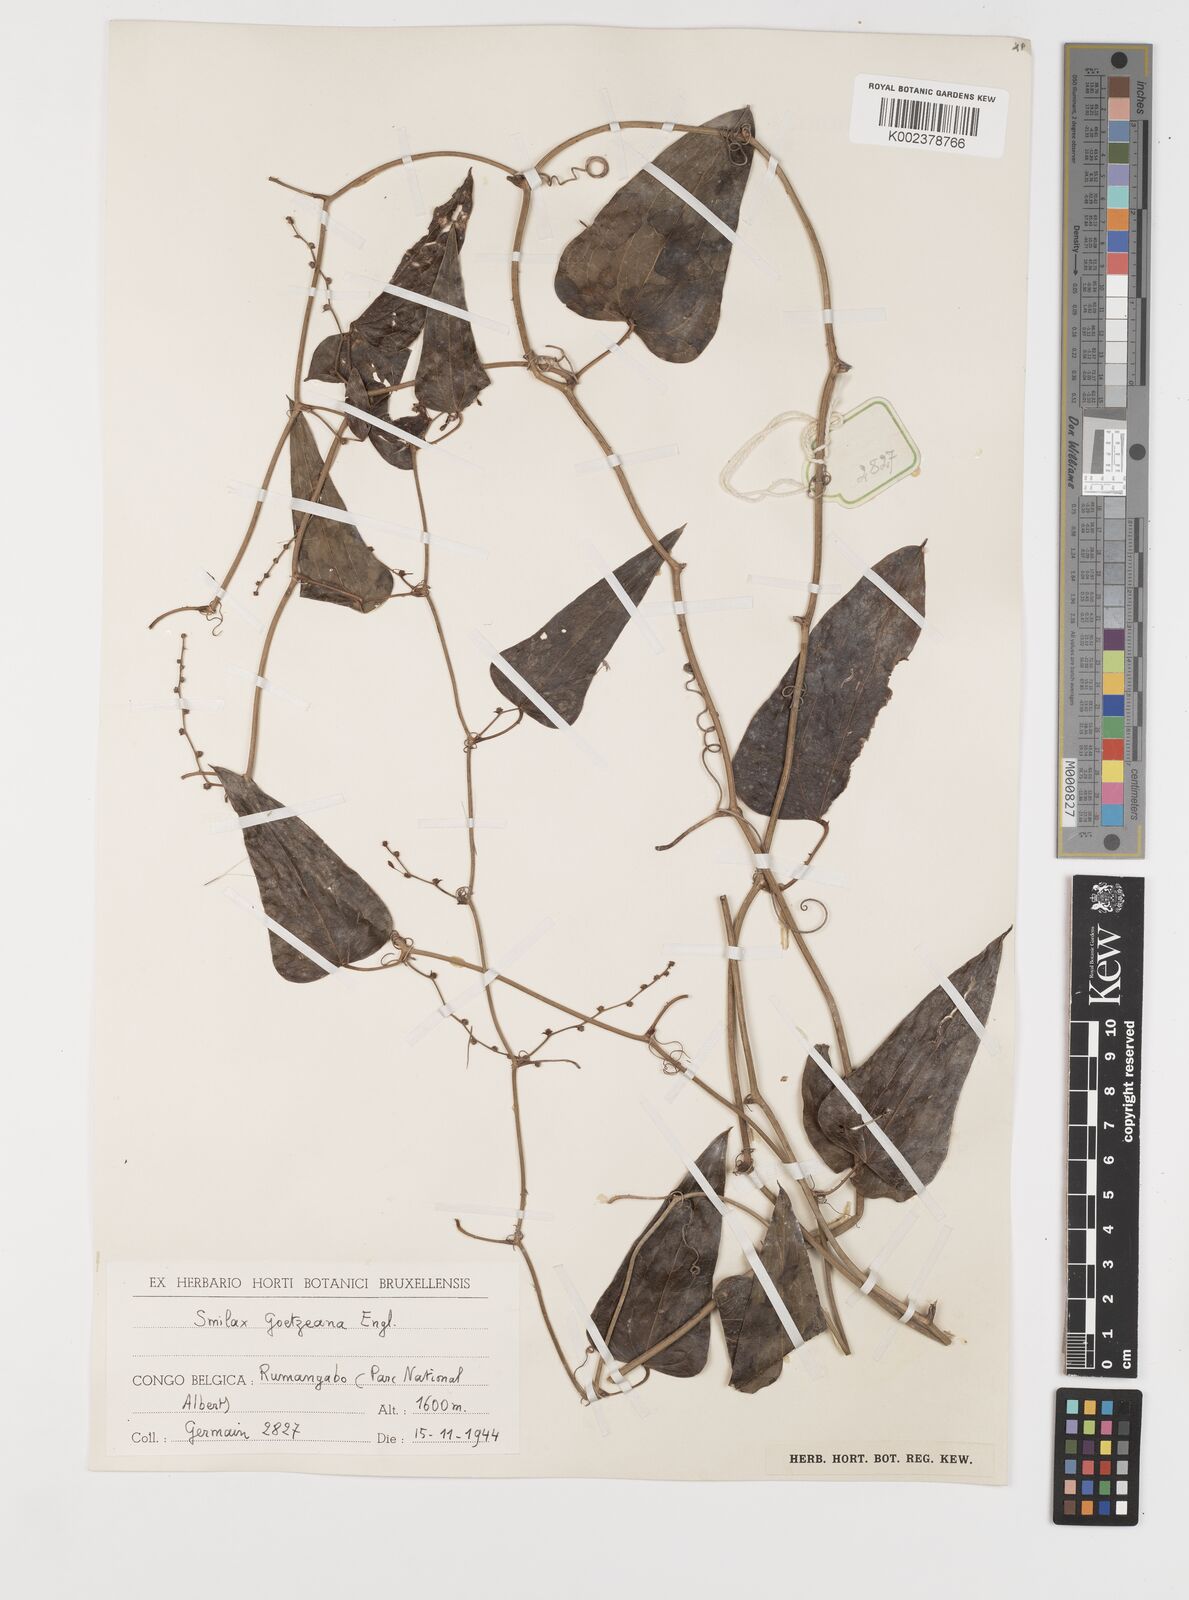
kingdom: Plantae
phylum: Tracheophyta
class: Liliopsida
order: Liliales
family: Smilacaceae
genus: Smilax
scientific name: Smilax aspera
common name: Common smilax
